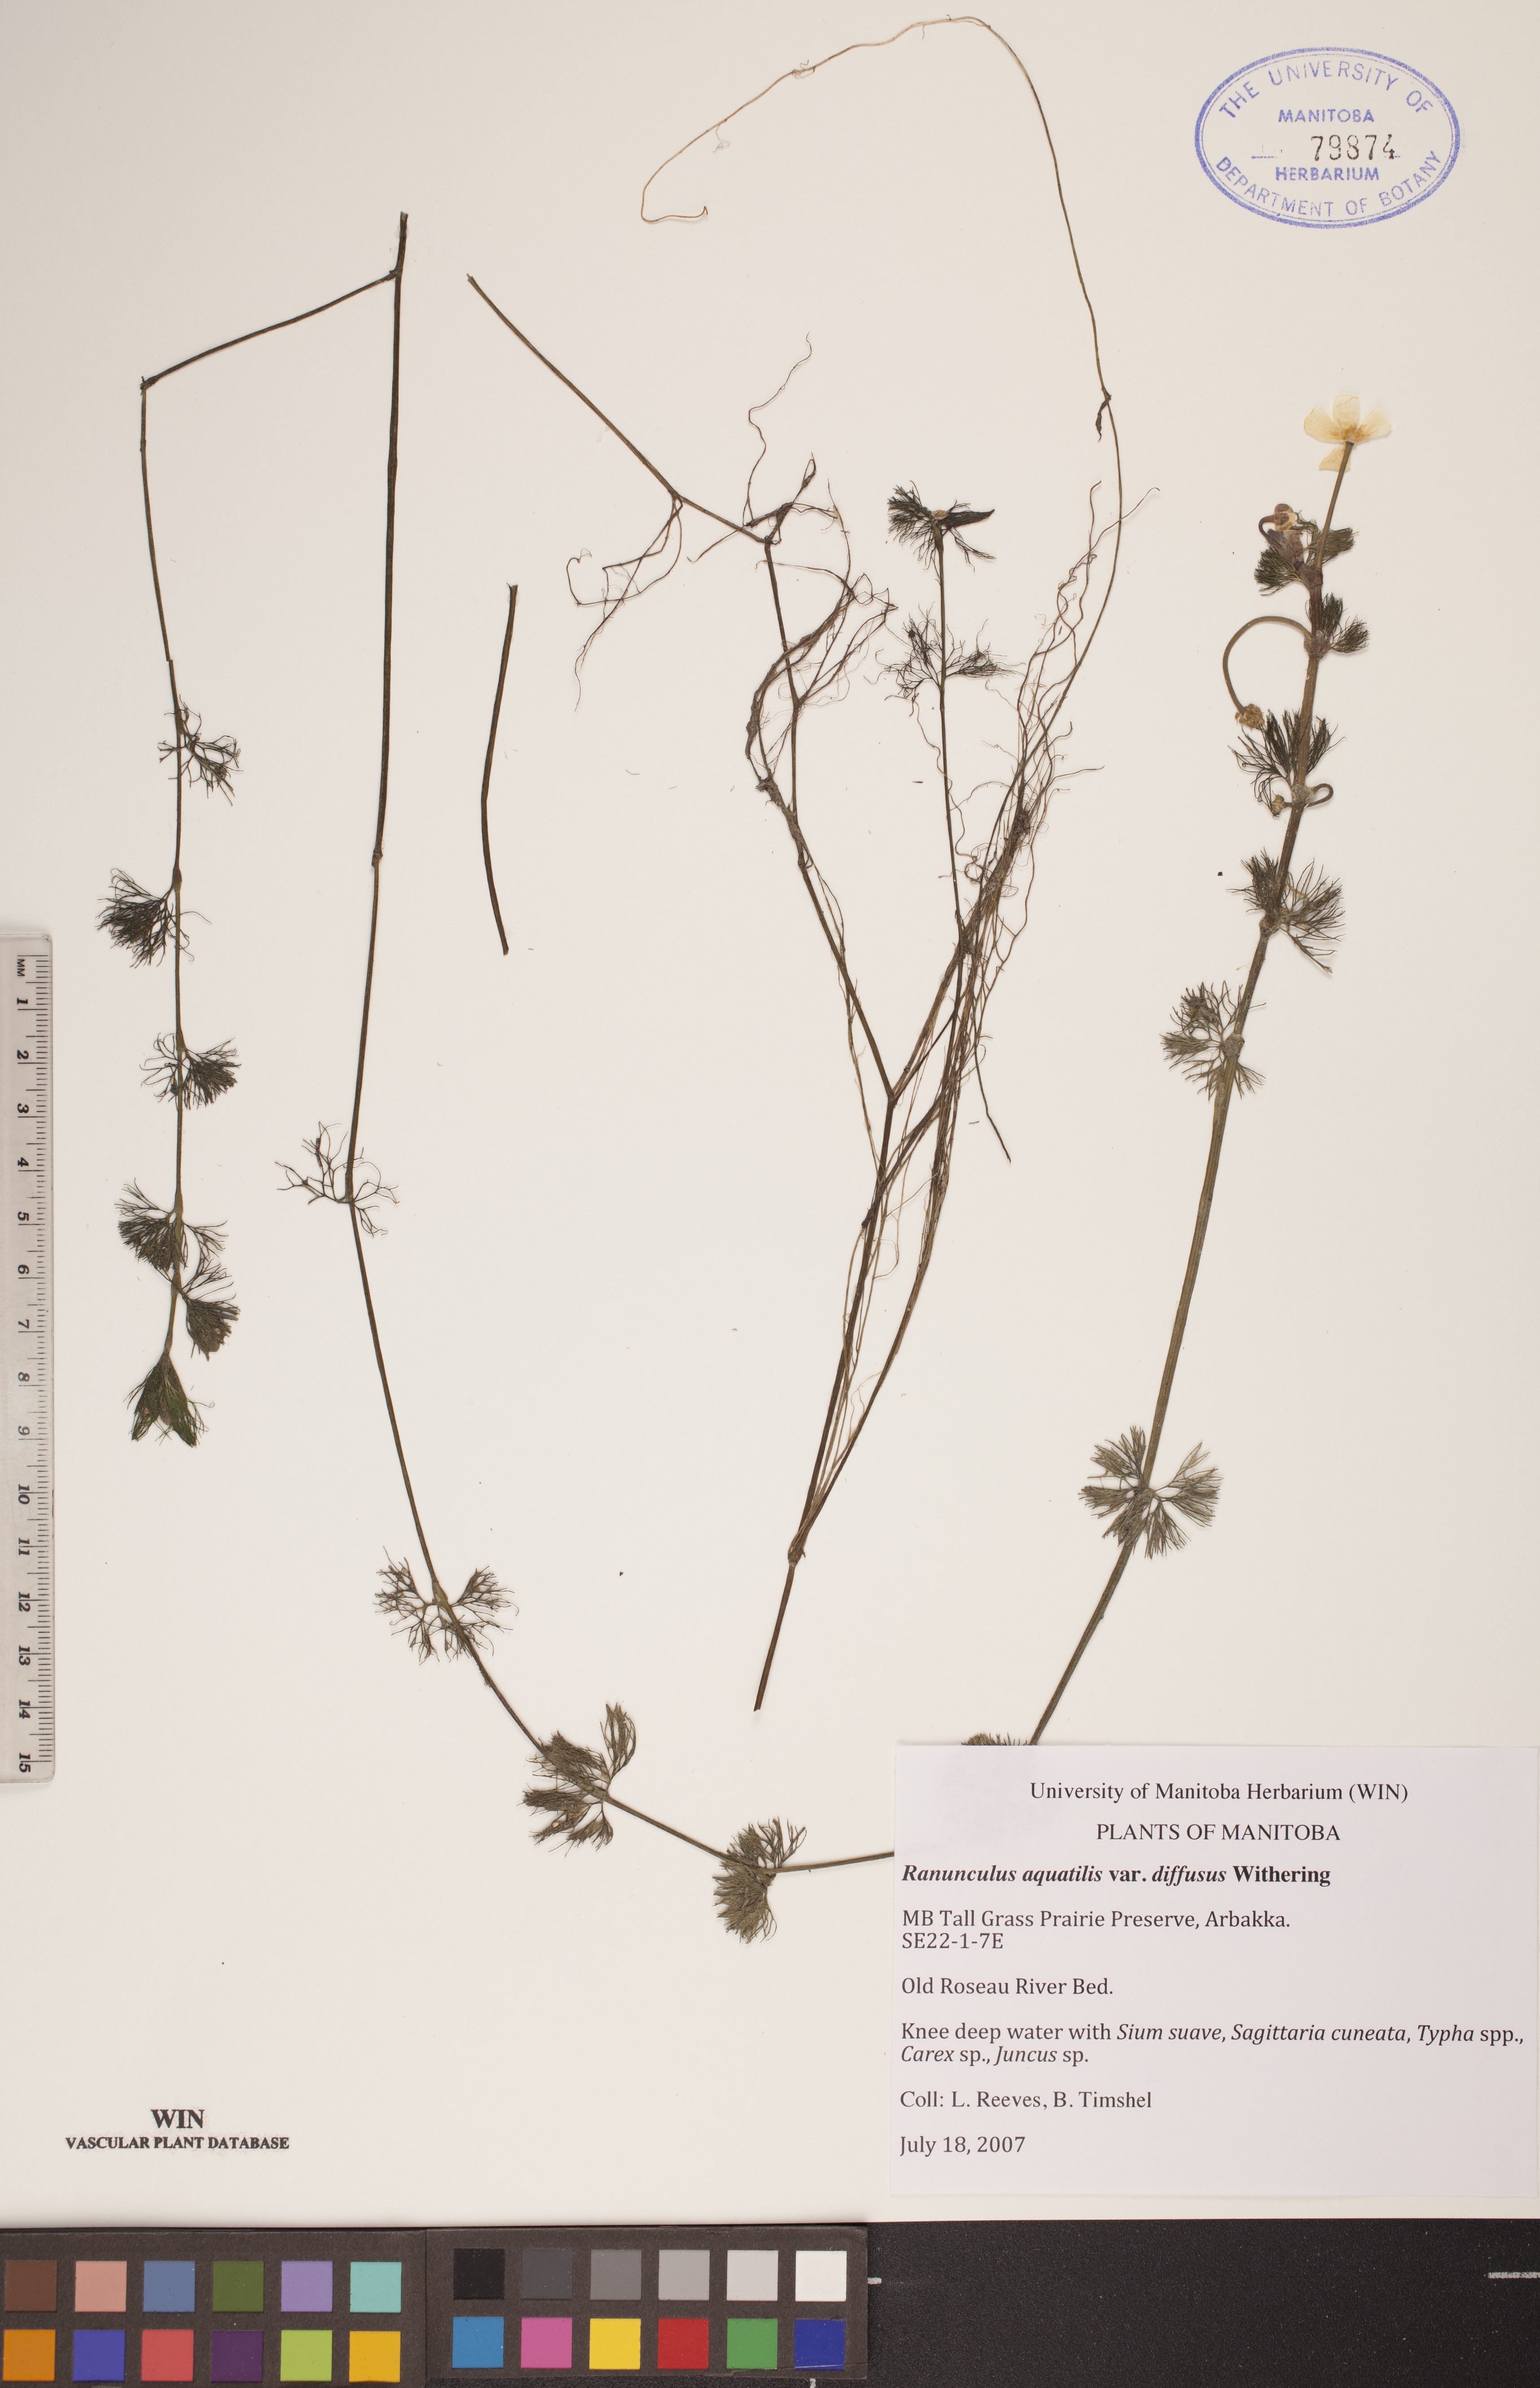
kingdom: Plantae
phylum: Tracheophyta
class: Magnoliopsida
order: Ranunculales
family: Ranunculaceae
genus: Ranunculus
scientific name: Ranunculus trichophyllus
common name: Thread-leaved water-crowfoot
